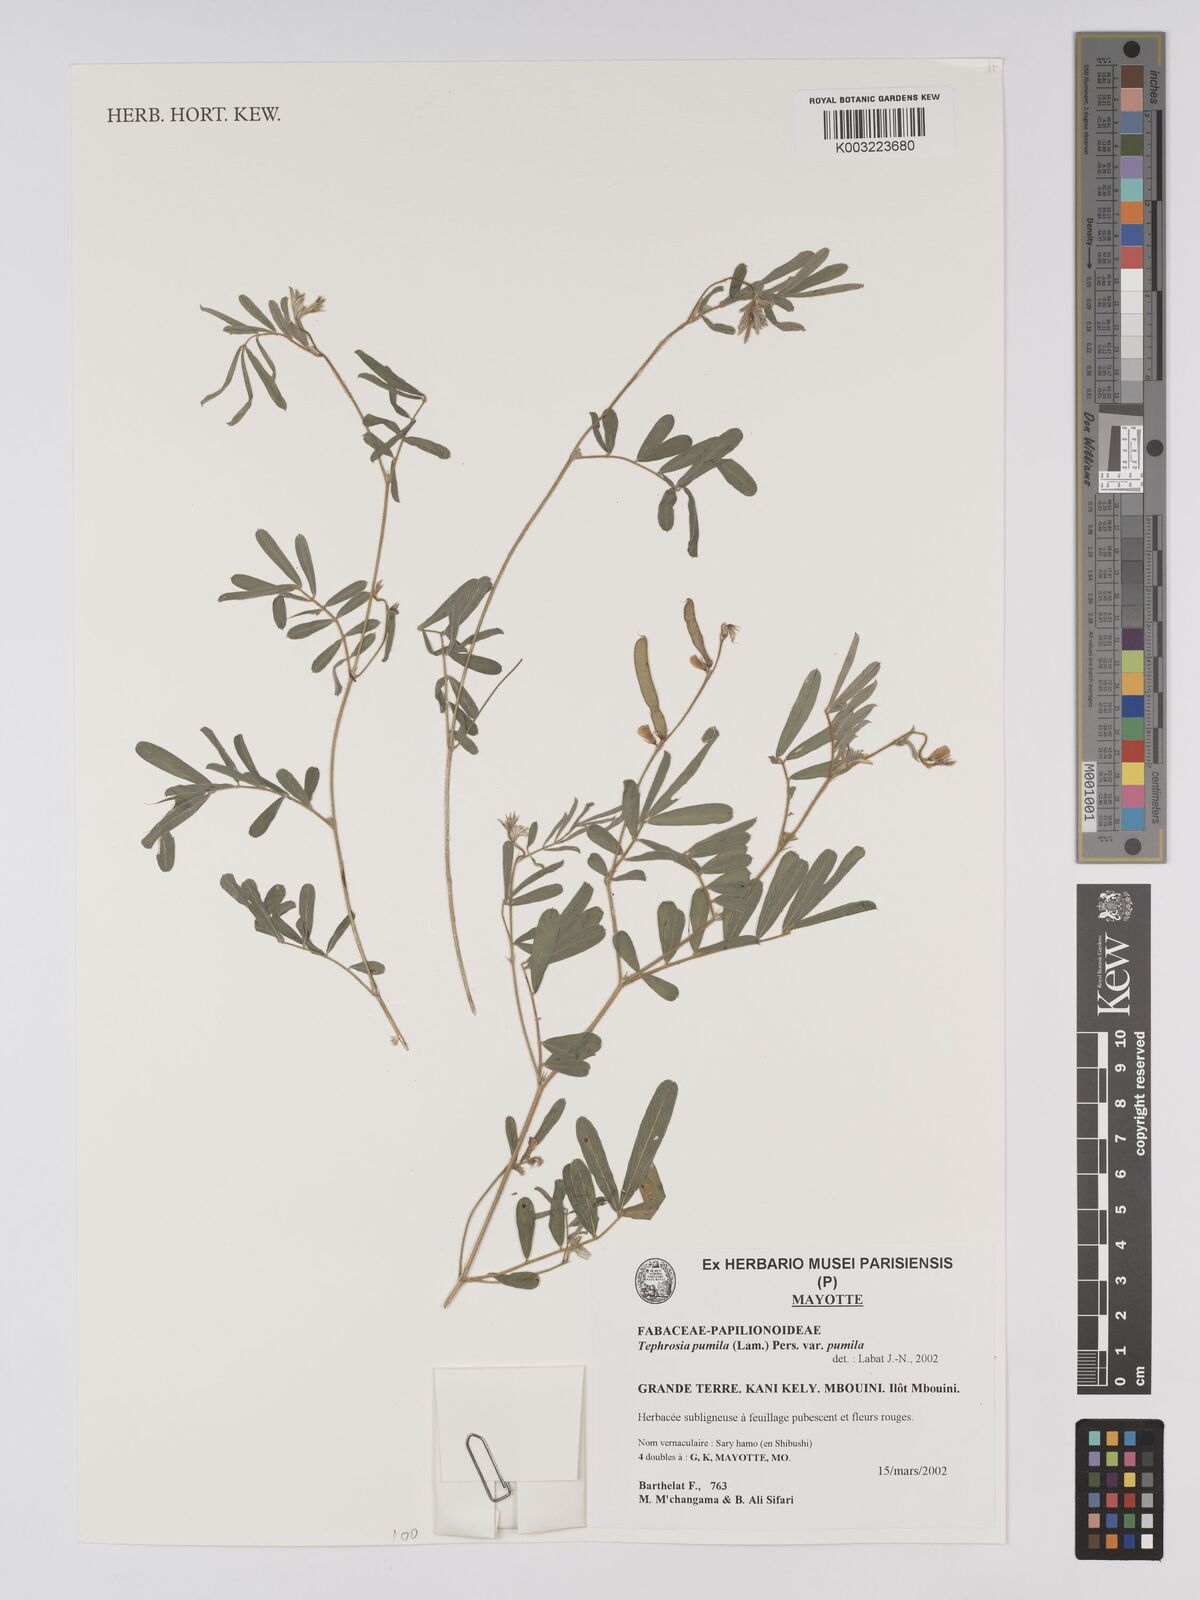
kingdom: Plantae
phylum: Tracheophyta
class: Magnoliopsida
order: Fabales
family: Fabaceae
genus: Tephrosia
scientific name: Tephrosia pumila
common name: Indigo sauvage
